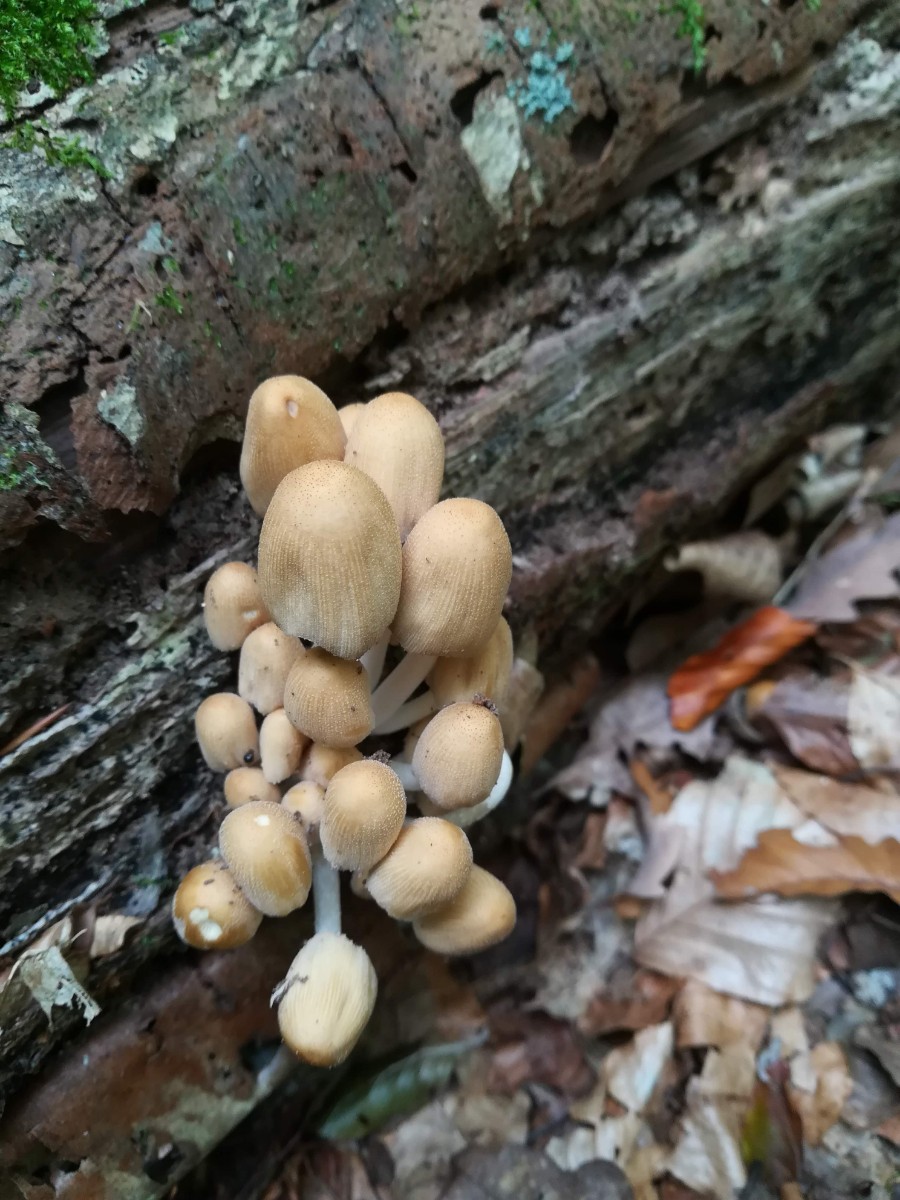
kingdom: Fungi
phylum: Basidiomycota
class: Agaricomycetes
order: Agaricales
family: Psathyrellaceae
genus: Coprinellus
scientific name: Coprinellus micaceus
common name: glimmer-blækhat
